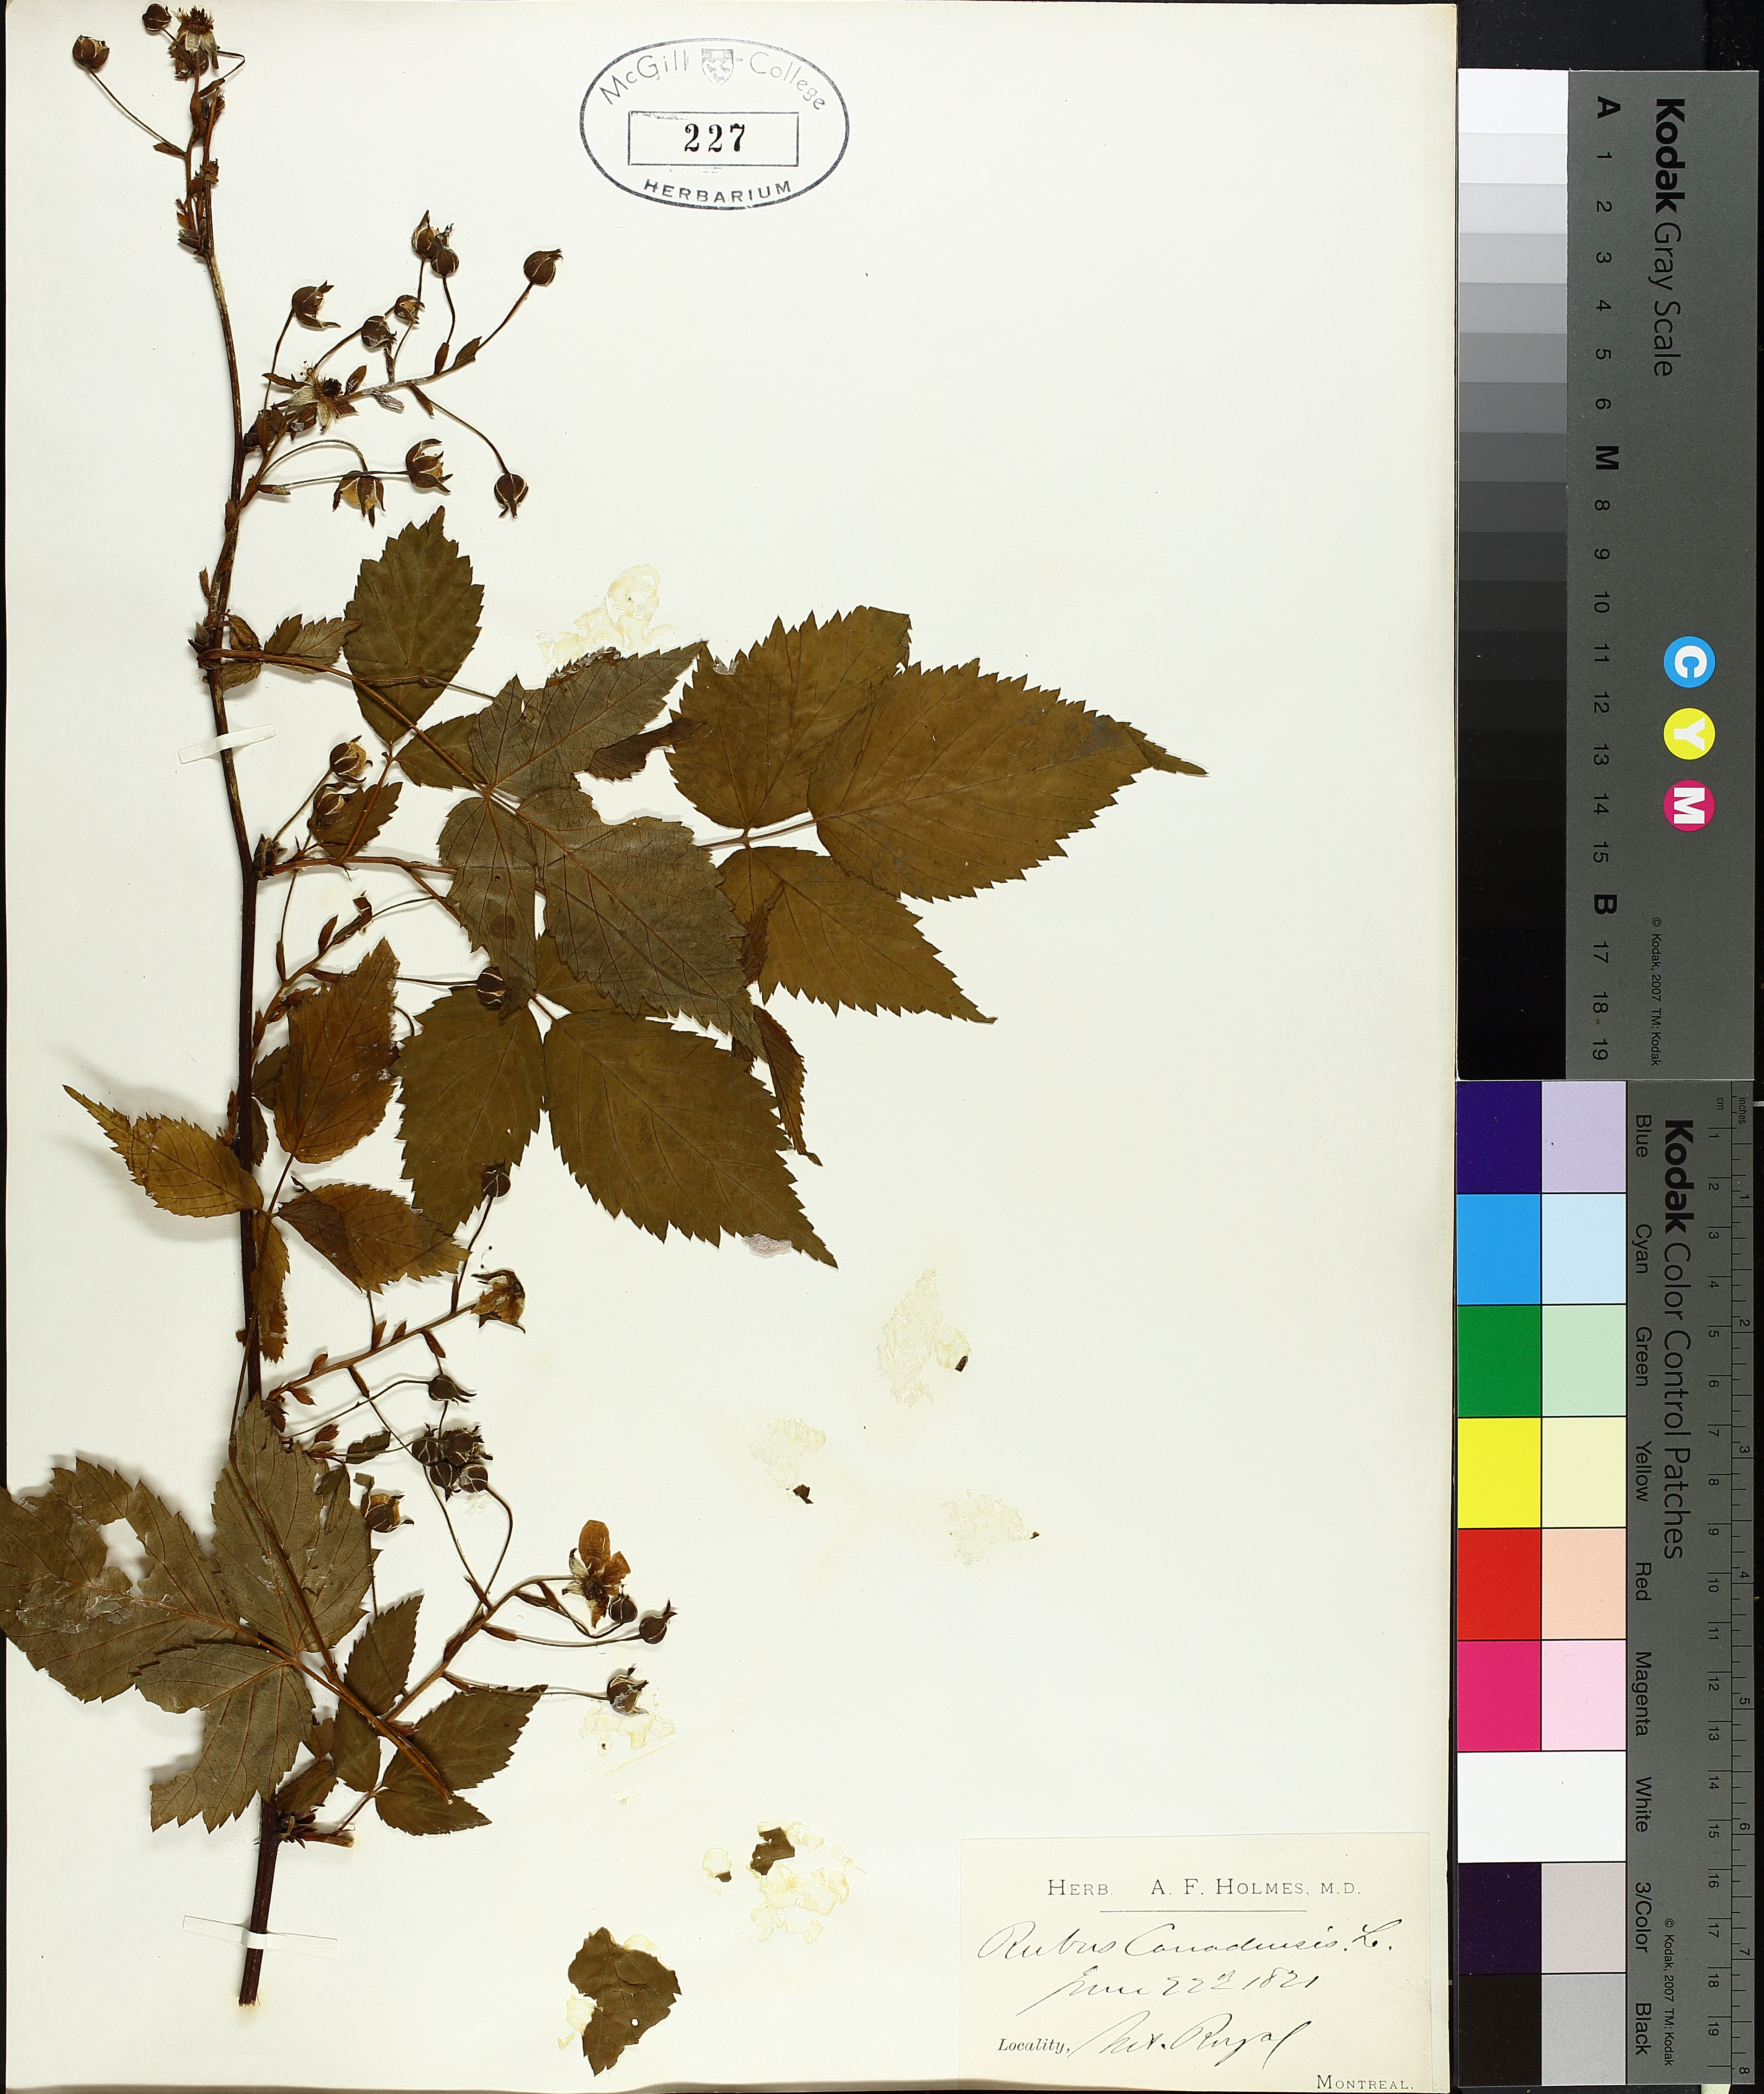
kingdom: Plantae
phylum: Tracheophyta
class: Magnoliopsida
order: Rosales
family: Rosaceae
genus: Rubus
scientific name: Rubus canadensis
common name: Smooth blackberry
